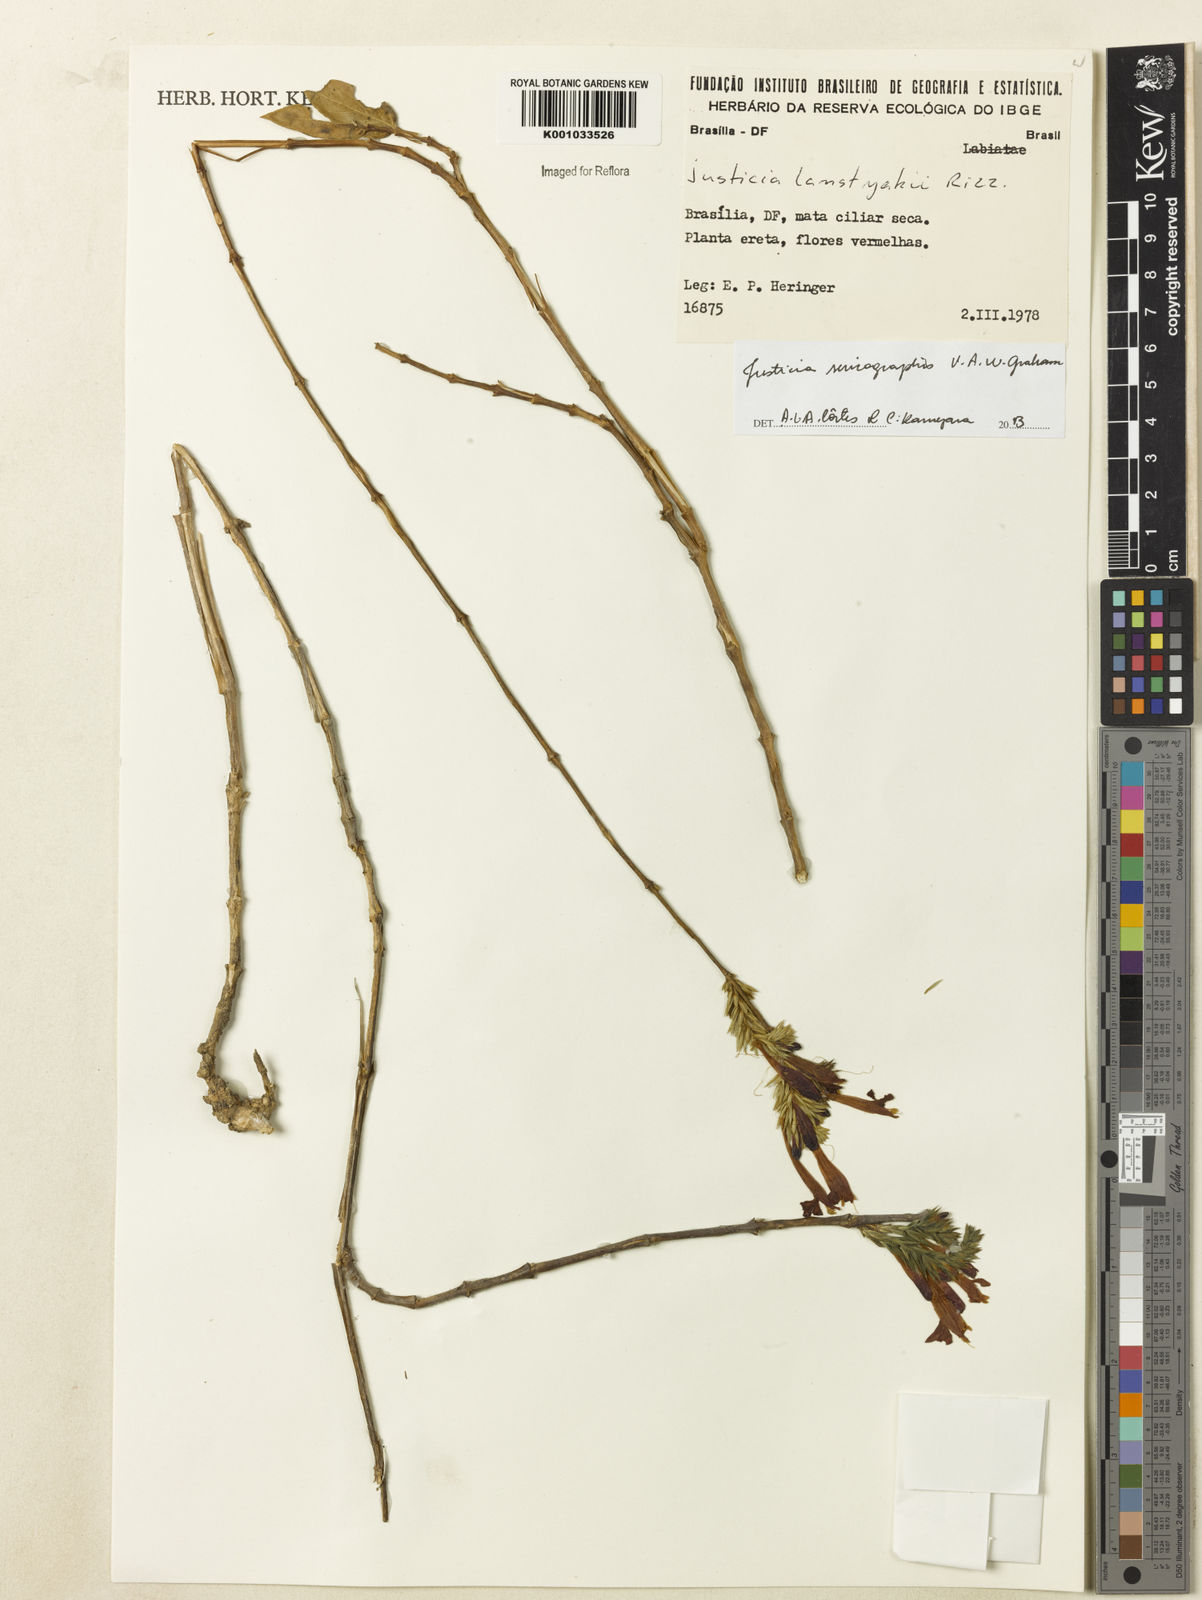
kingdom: Plantae
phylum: Tracheophyta
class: Magnoliopsida
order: Lamiales
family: Acanthaceae
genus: Dianthera
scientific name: Dianthera rigida
